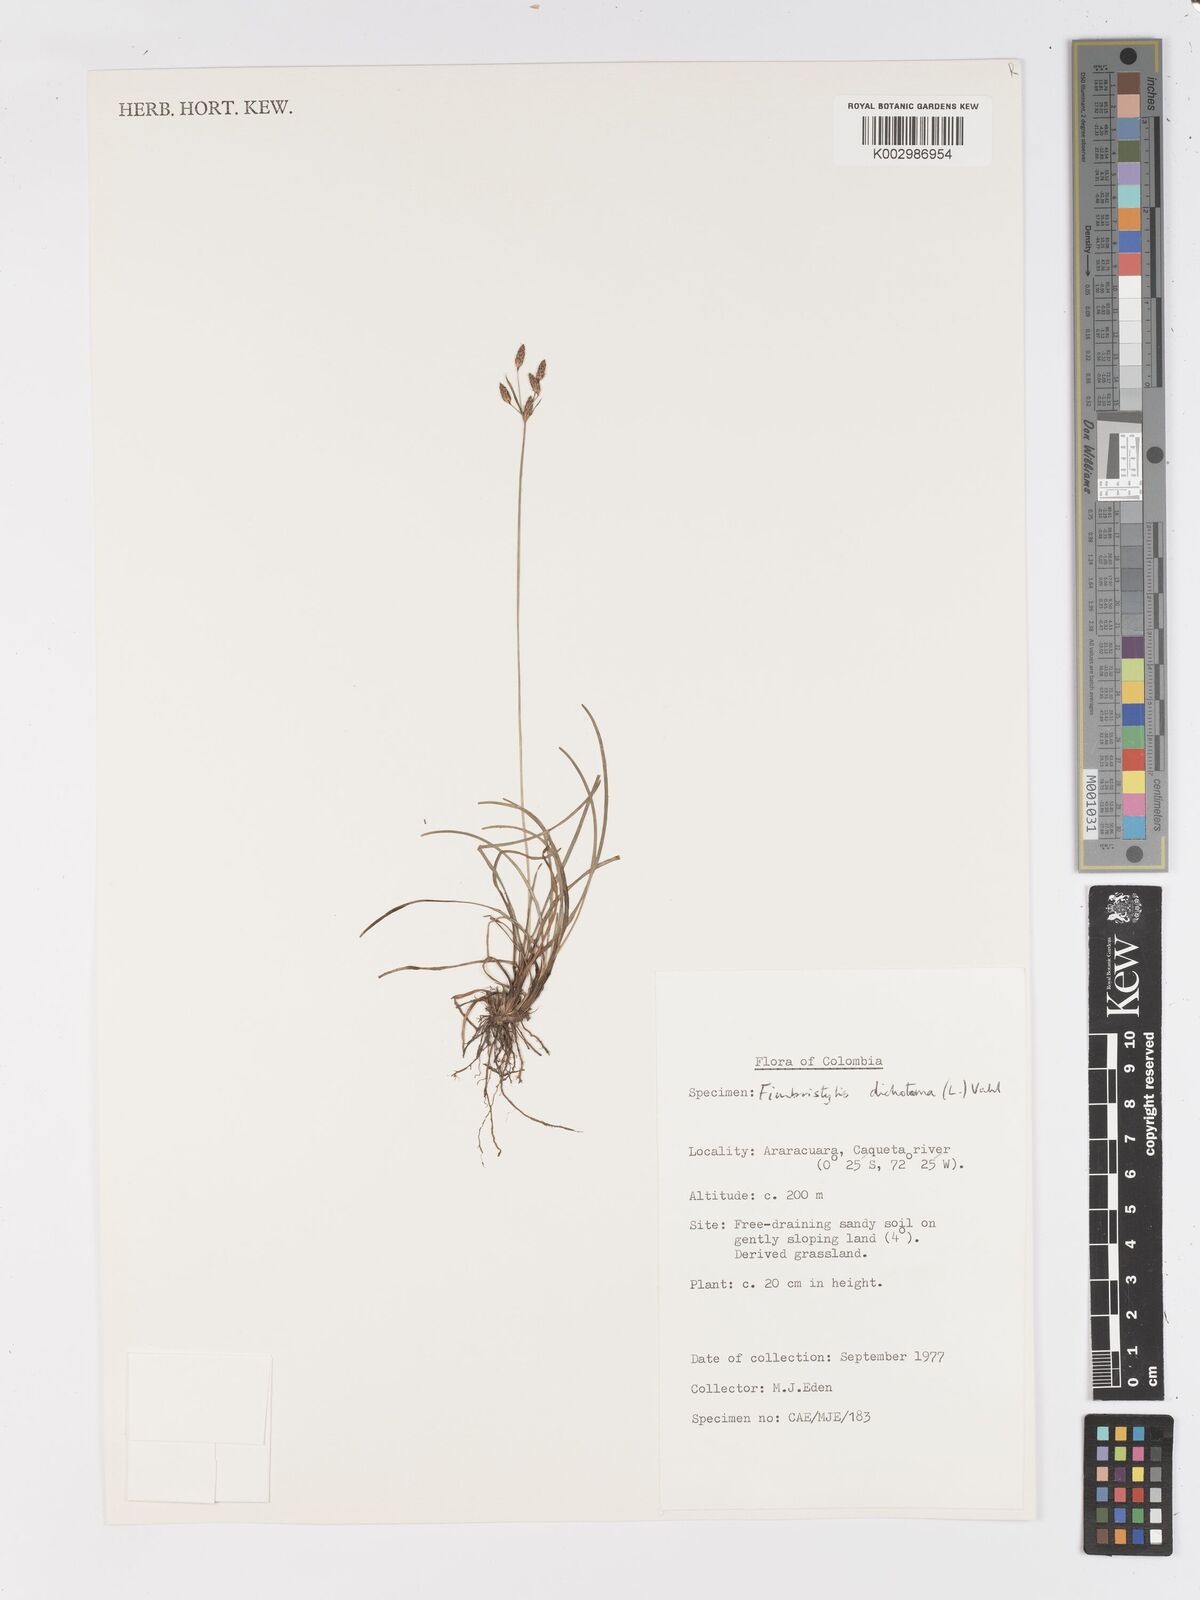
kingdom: Plantae
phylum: Tracheophyta
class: Liliopsida
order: Poales
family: Cyperaceae
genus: Fimbristylis
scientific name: Fimbristylis dichotoma
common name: Forked fimbry
